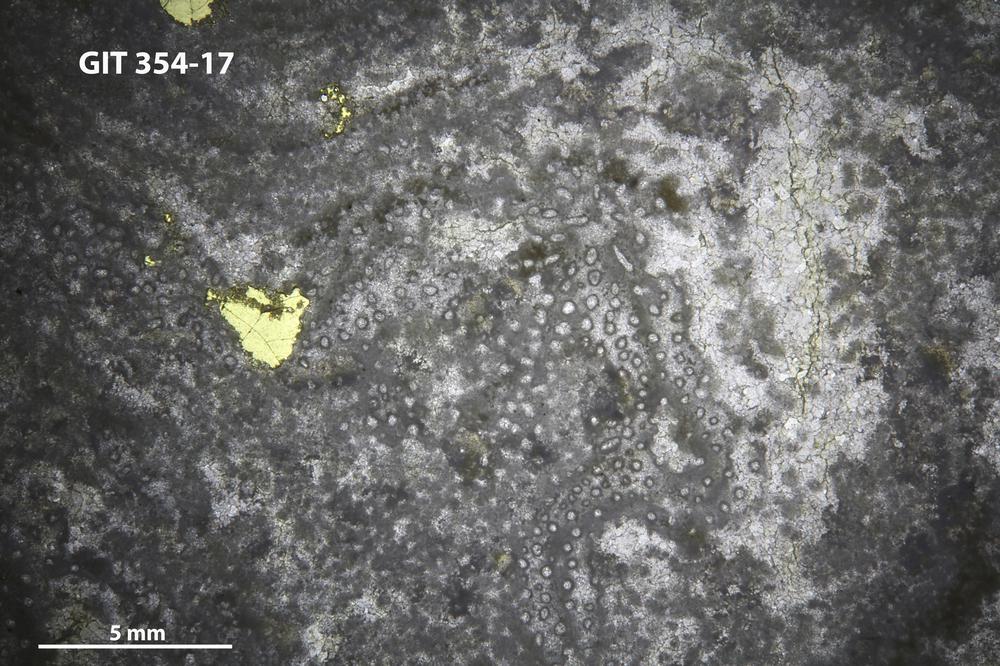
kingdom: Animalia
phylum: Porifera
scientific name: Porifera
